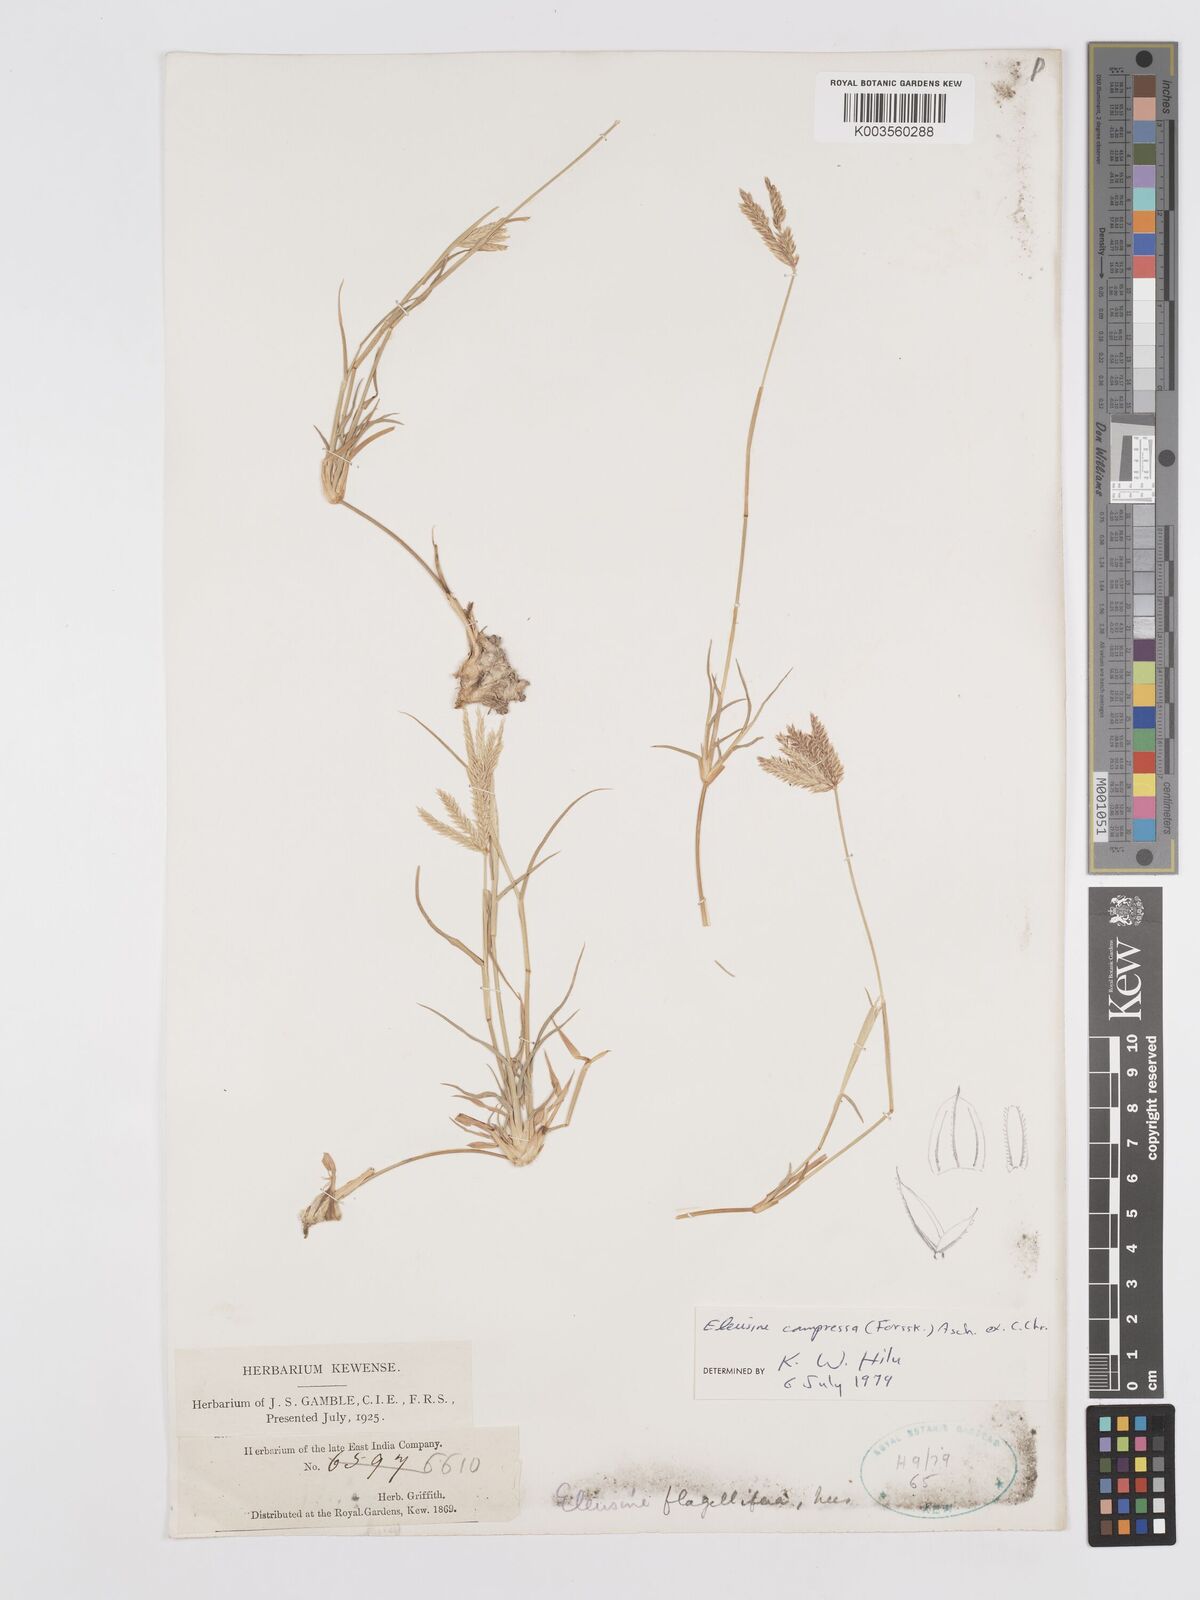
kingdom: Plantae
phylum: Tracheophyta
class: Liliopsida
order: Poales
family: Poaceae
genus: Chloris
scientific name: Chloris flagellifera
